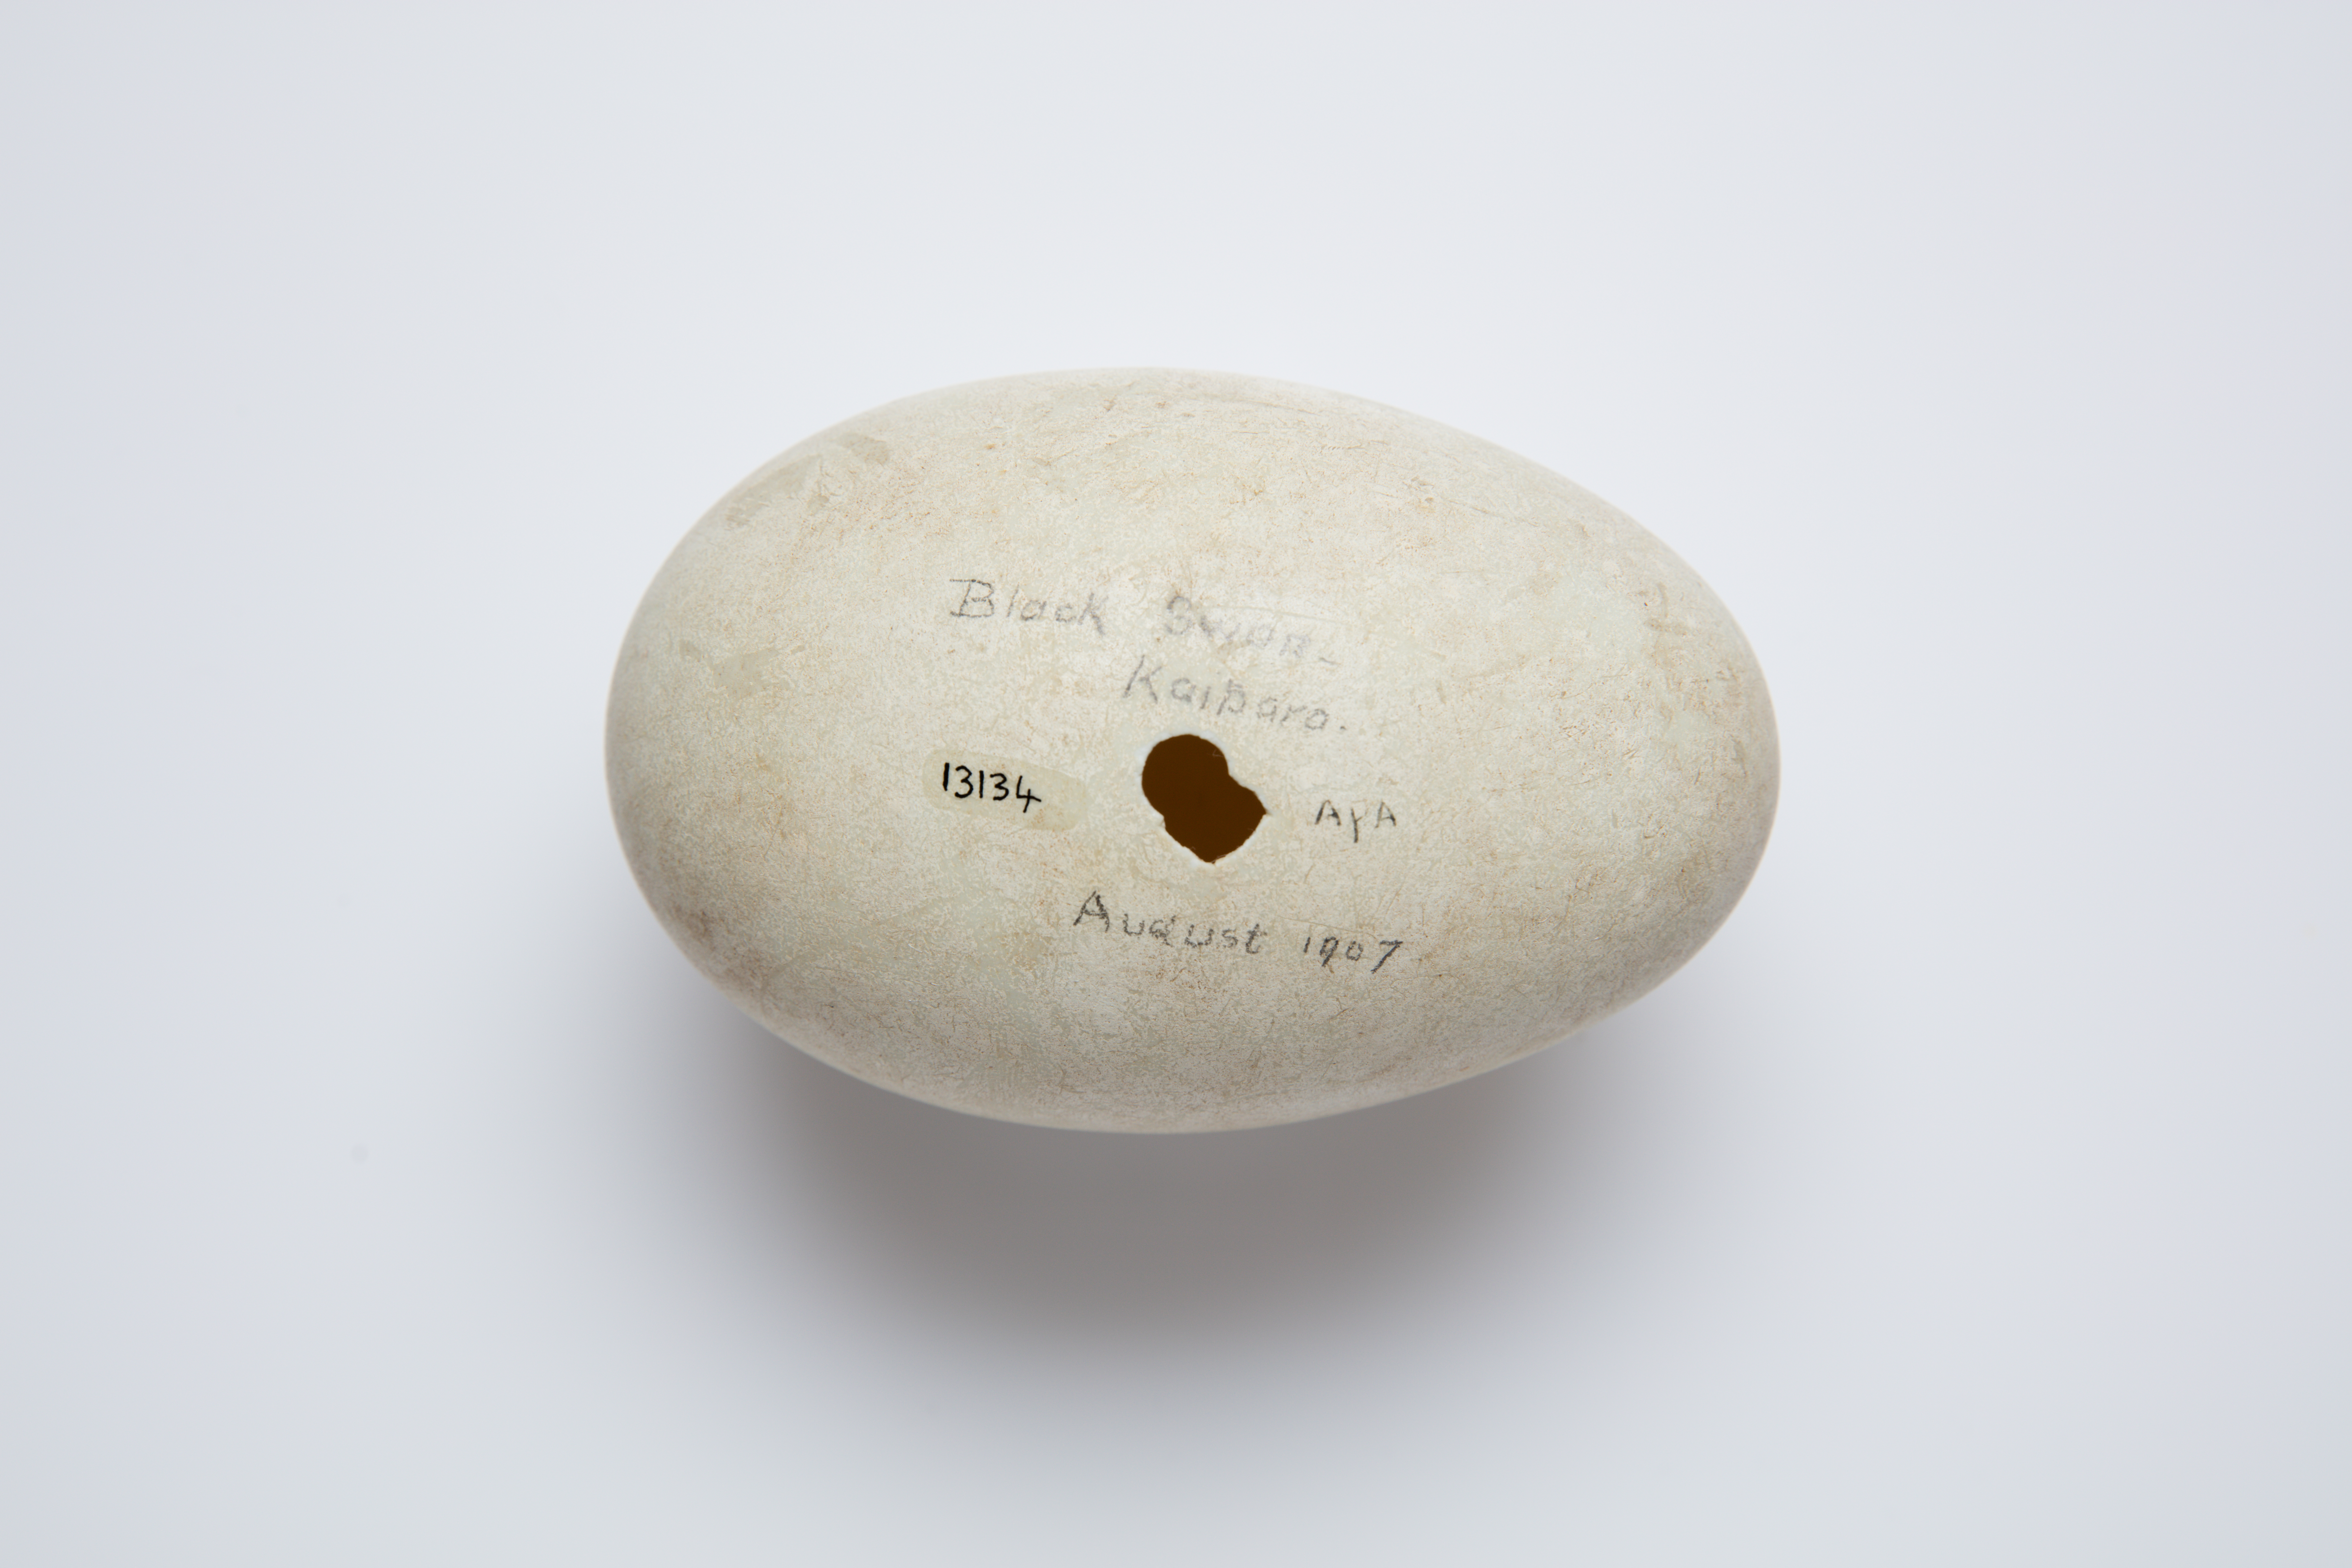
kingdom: Animalia
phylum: Chordata
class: Aves
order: Anseriformes
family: Anatidae
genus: Cygnus
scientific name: Cygnus atratus
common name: Black swan
